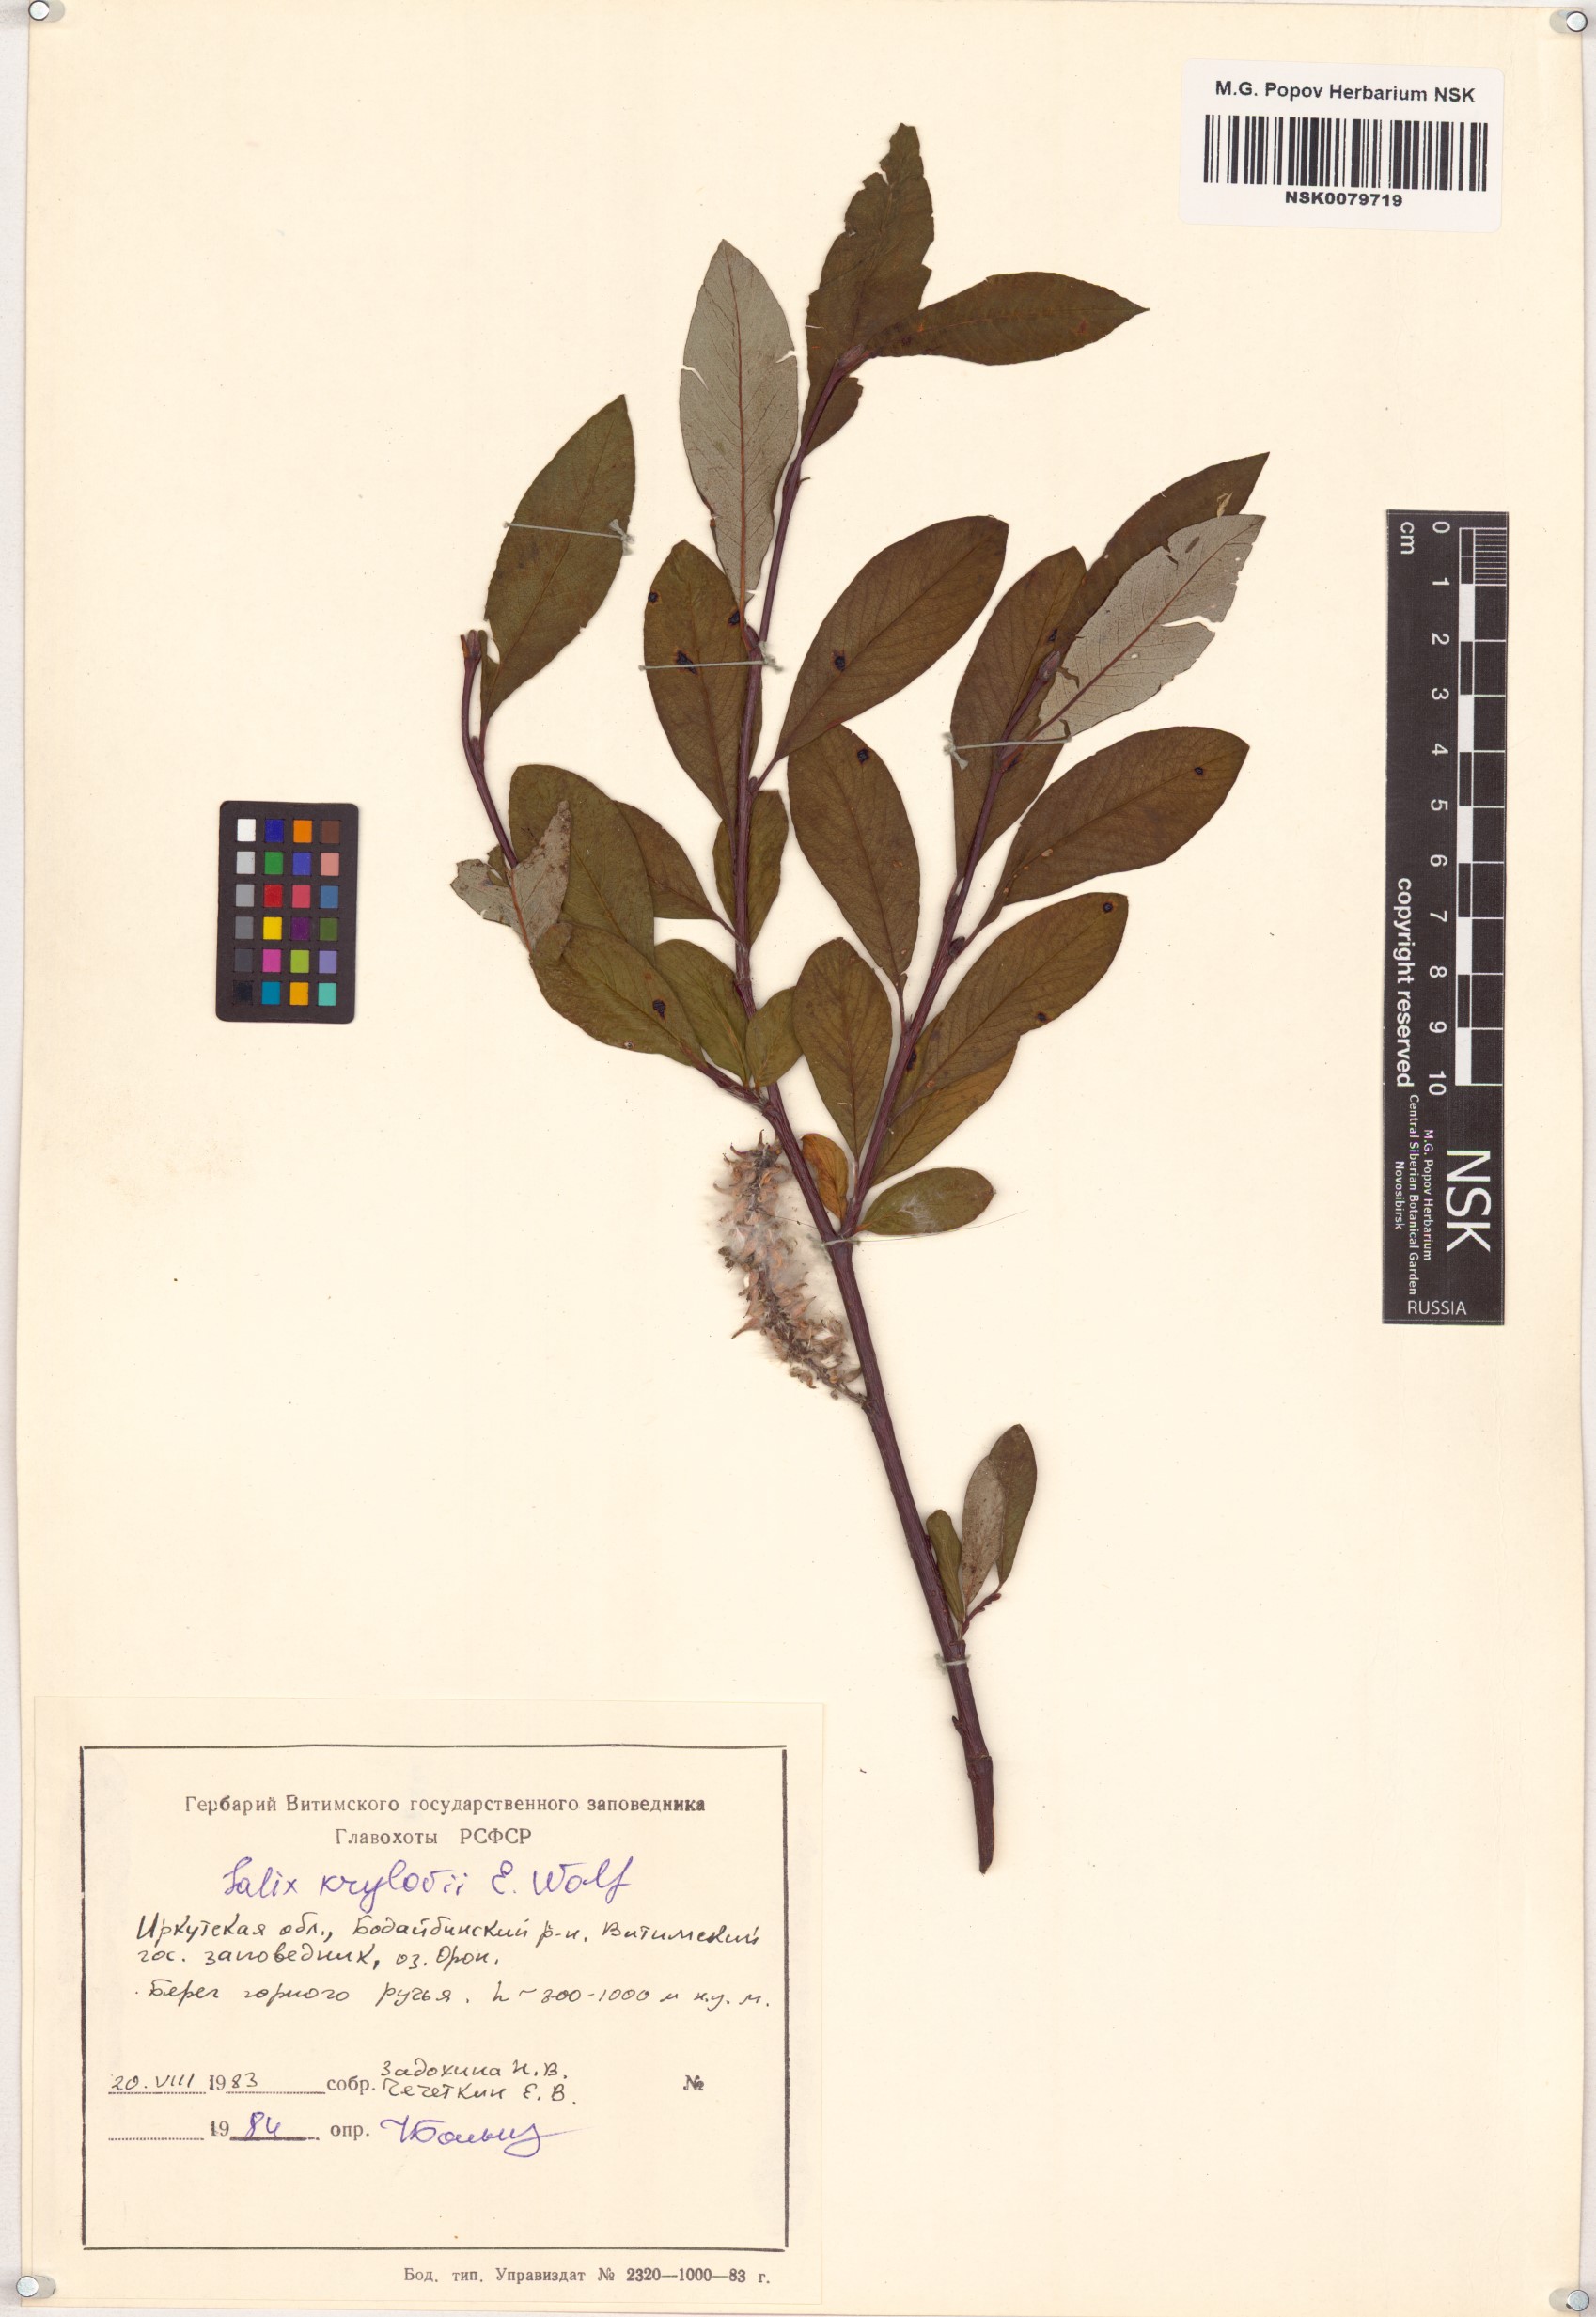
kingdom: Plantae
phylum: Tracheophyta
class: Magnoliopsida
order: Malpighiales
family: Salicaceae
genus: Salix
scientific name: Salix krylovii
